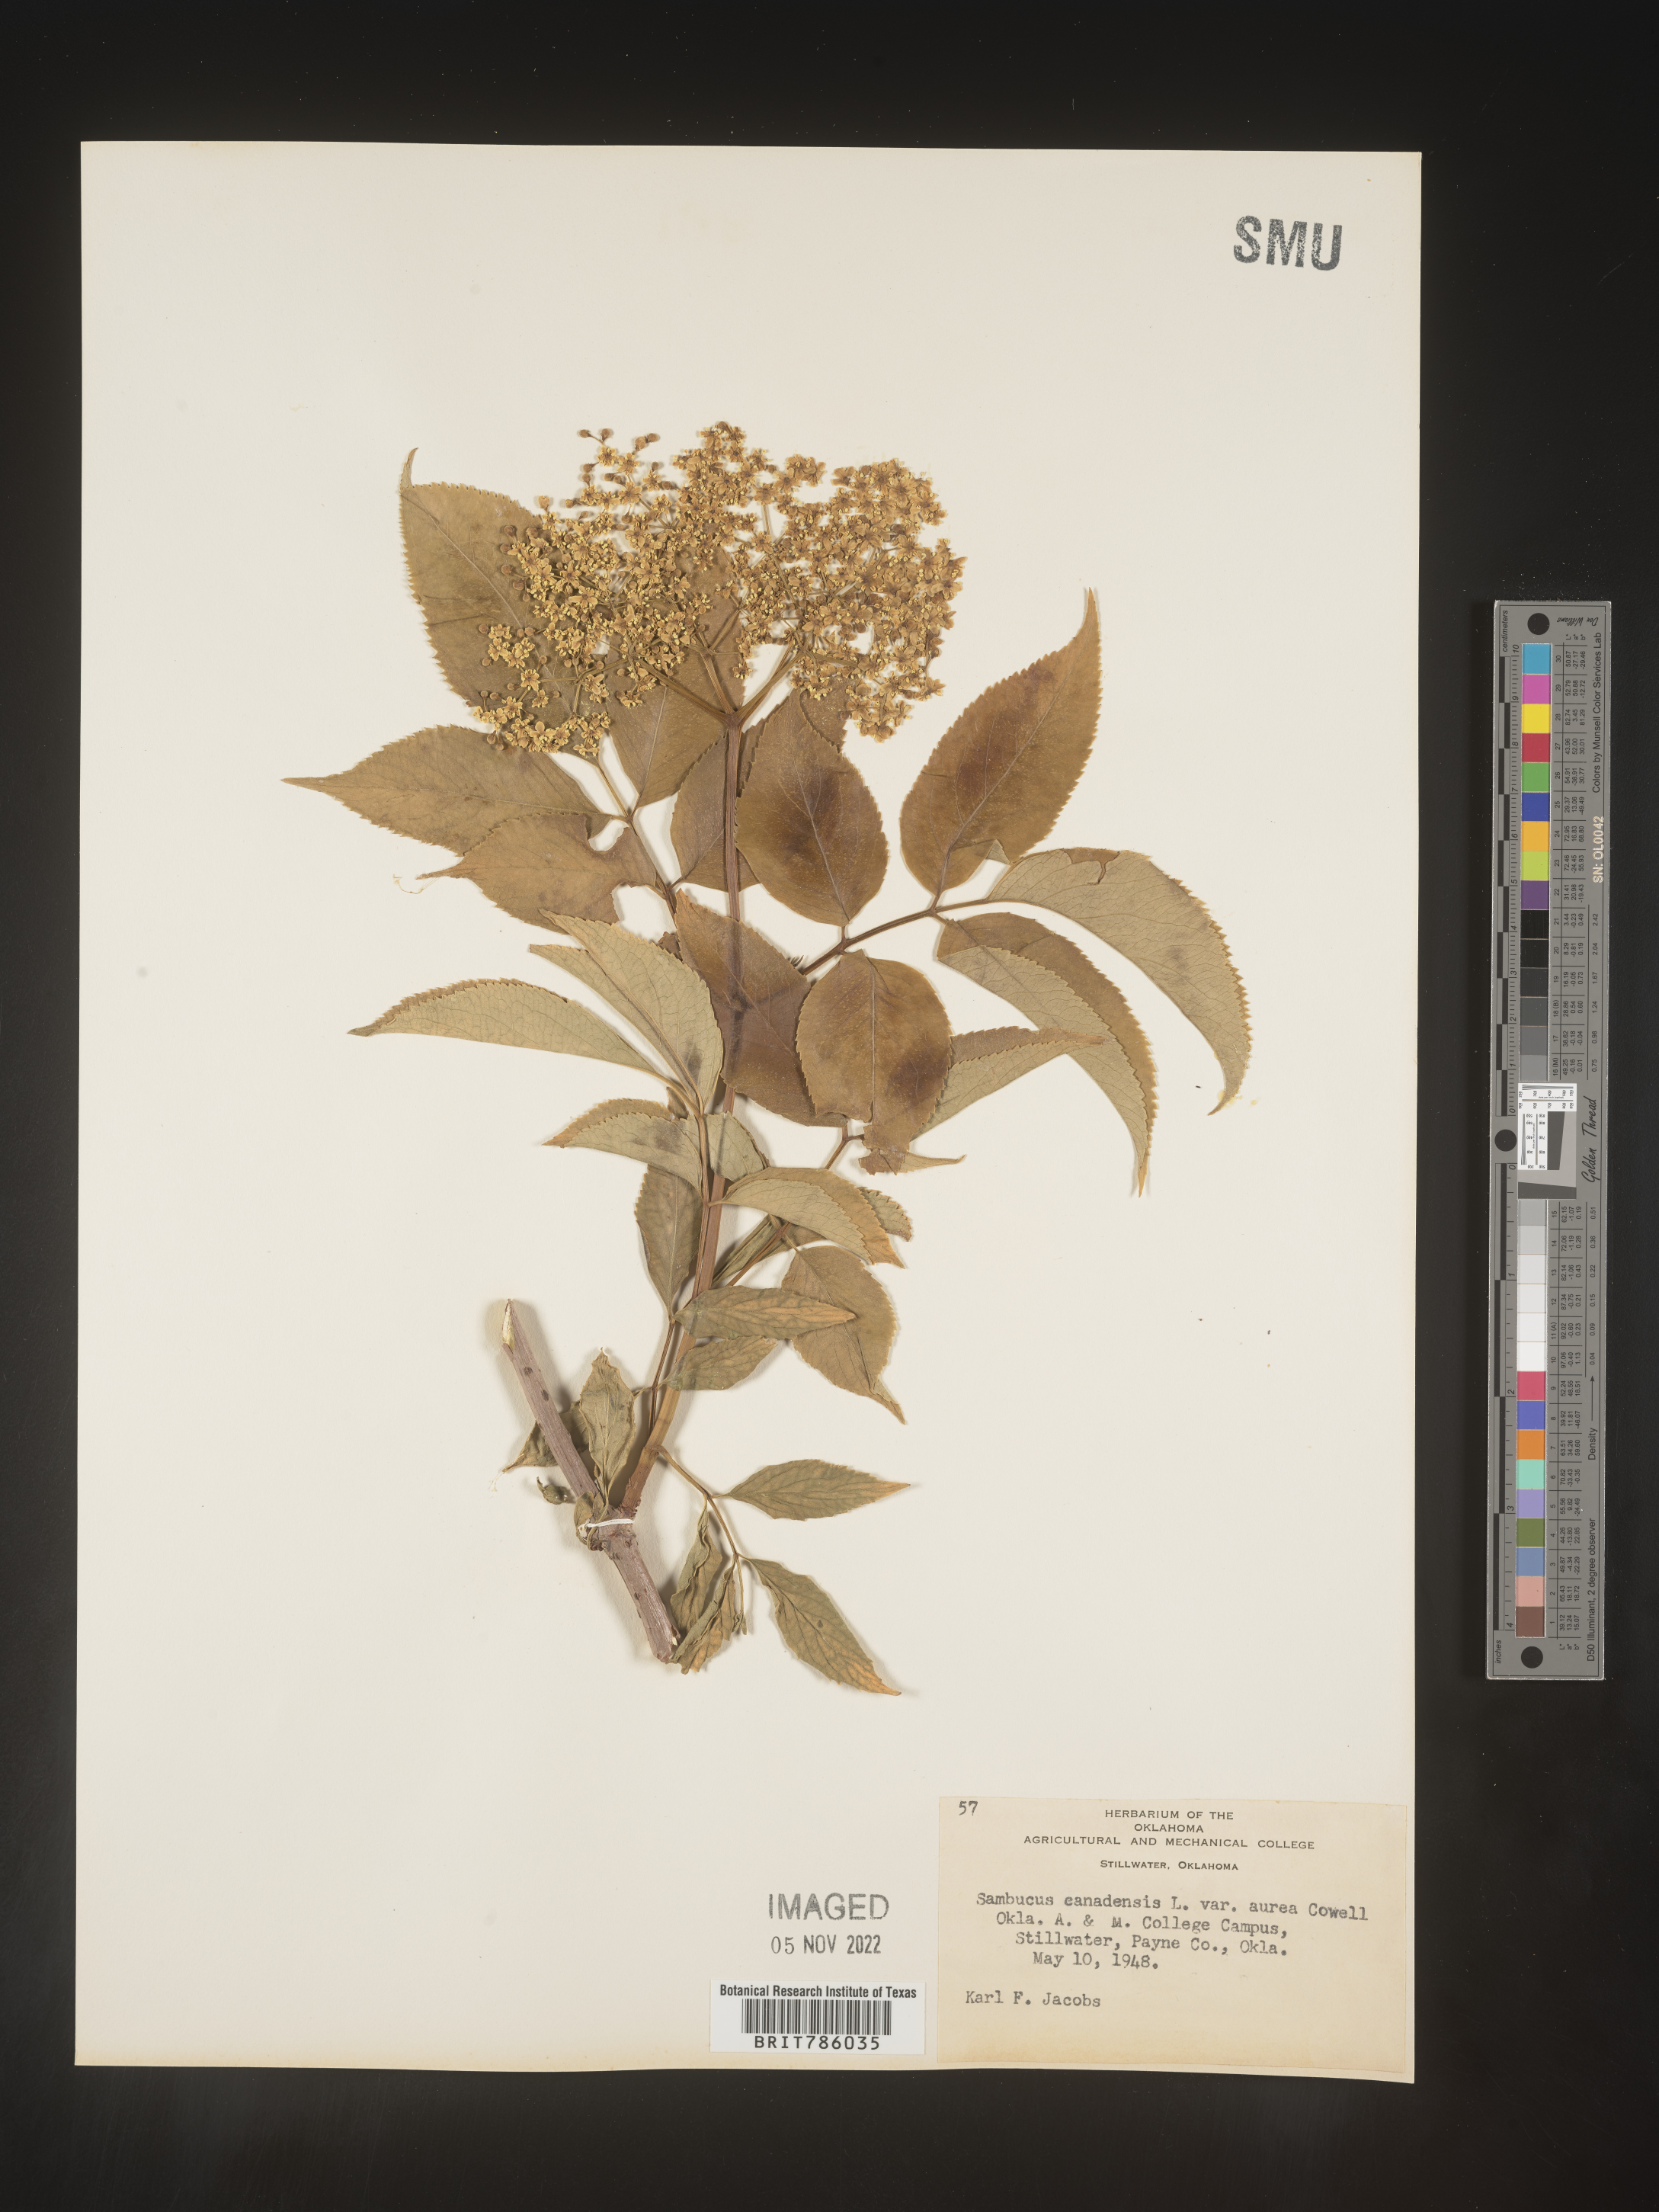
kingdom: Plantae
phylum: Tracheophyta
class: Magnoliopsida
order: Dipsacales
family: Viburnaceae
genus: Sambucus
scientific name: Sambucus
